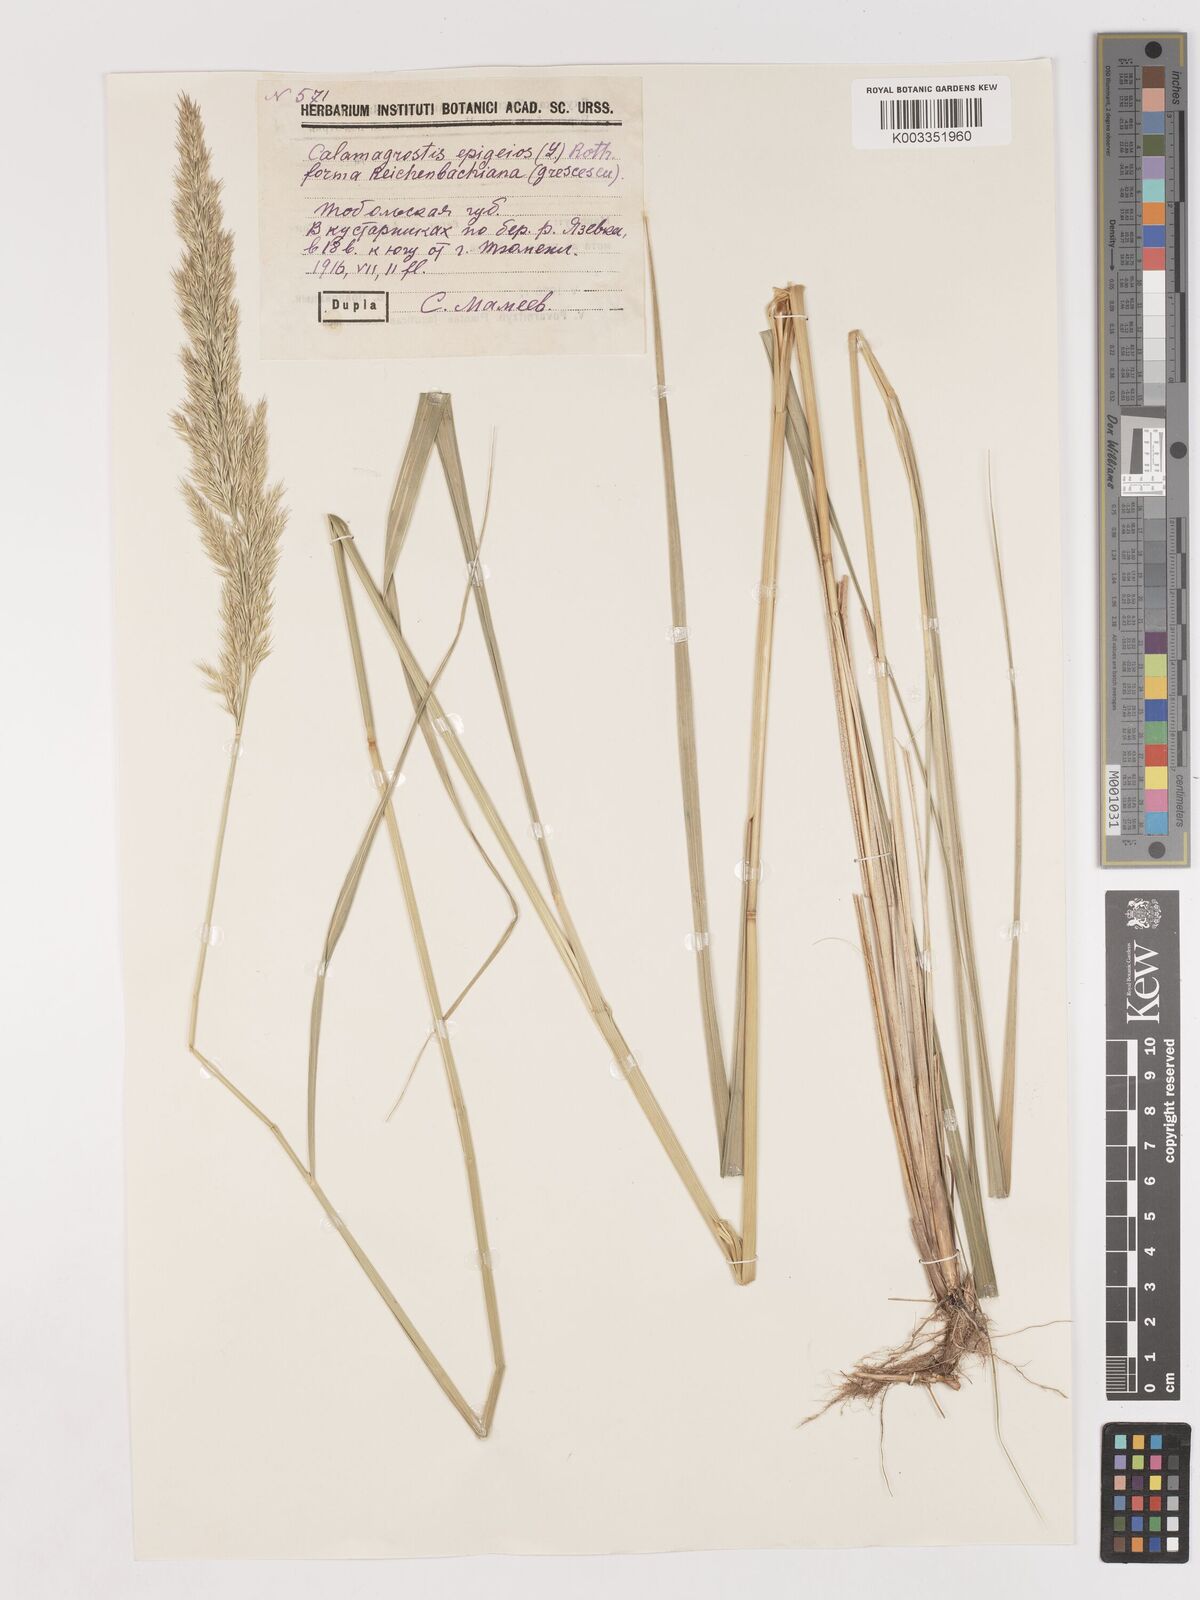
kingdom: Plantae
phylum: Tracheophyta
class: Liliopsida
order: Poales
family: Poaceae
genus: Calamagrostis
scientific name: Calamagrostis epigejos
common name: Wood small-reed
